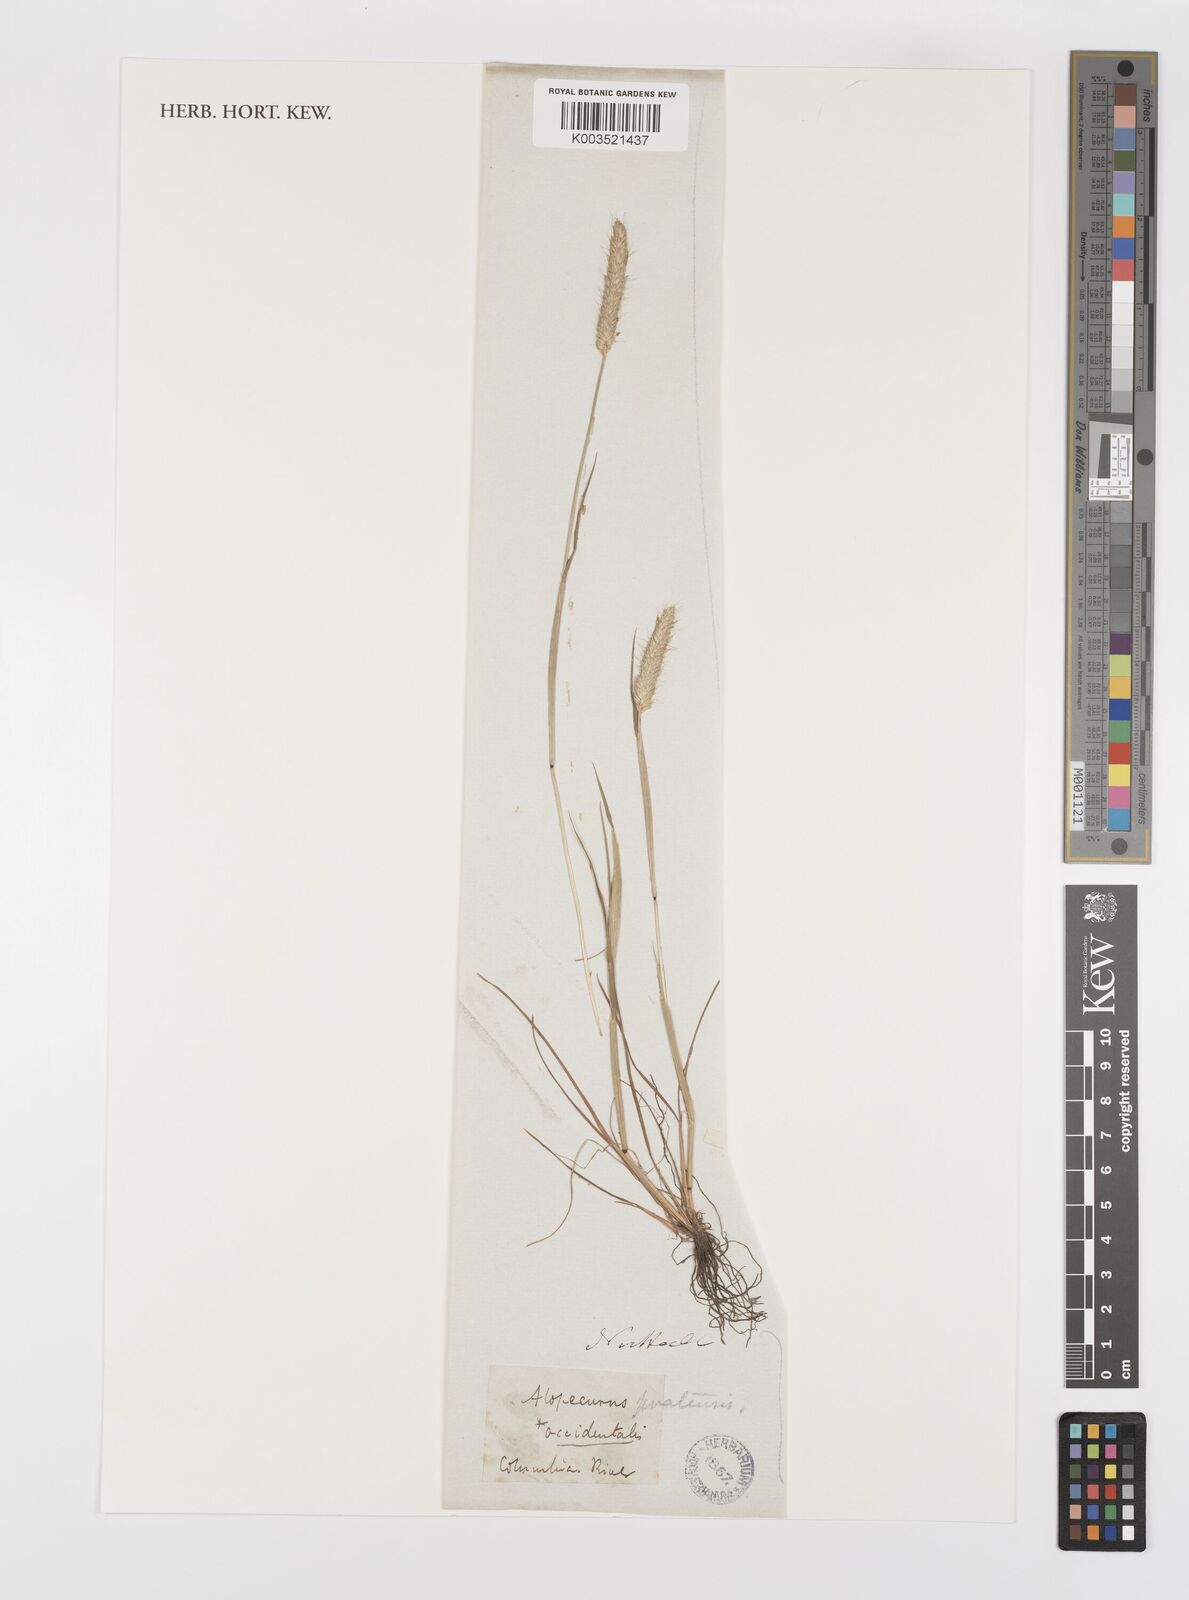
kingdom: Plantae
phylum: Tracheophyta
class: Liliopsida
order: Poales
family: Poaceae
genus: Alopecurus
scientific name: Alopecurus saccatus
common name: Pacific foxtail
